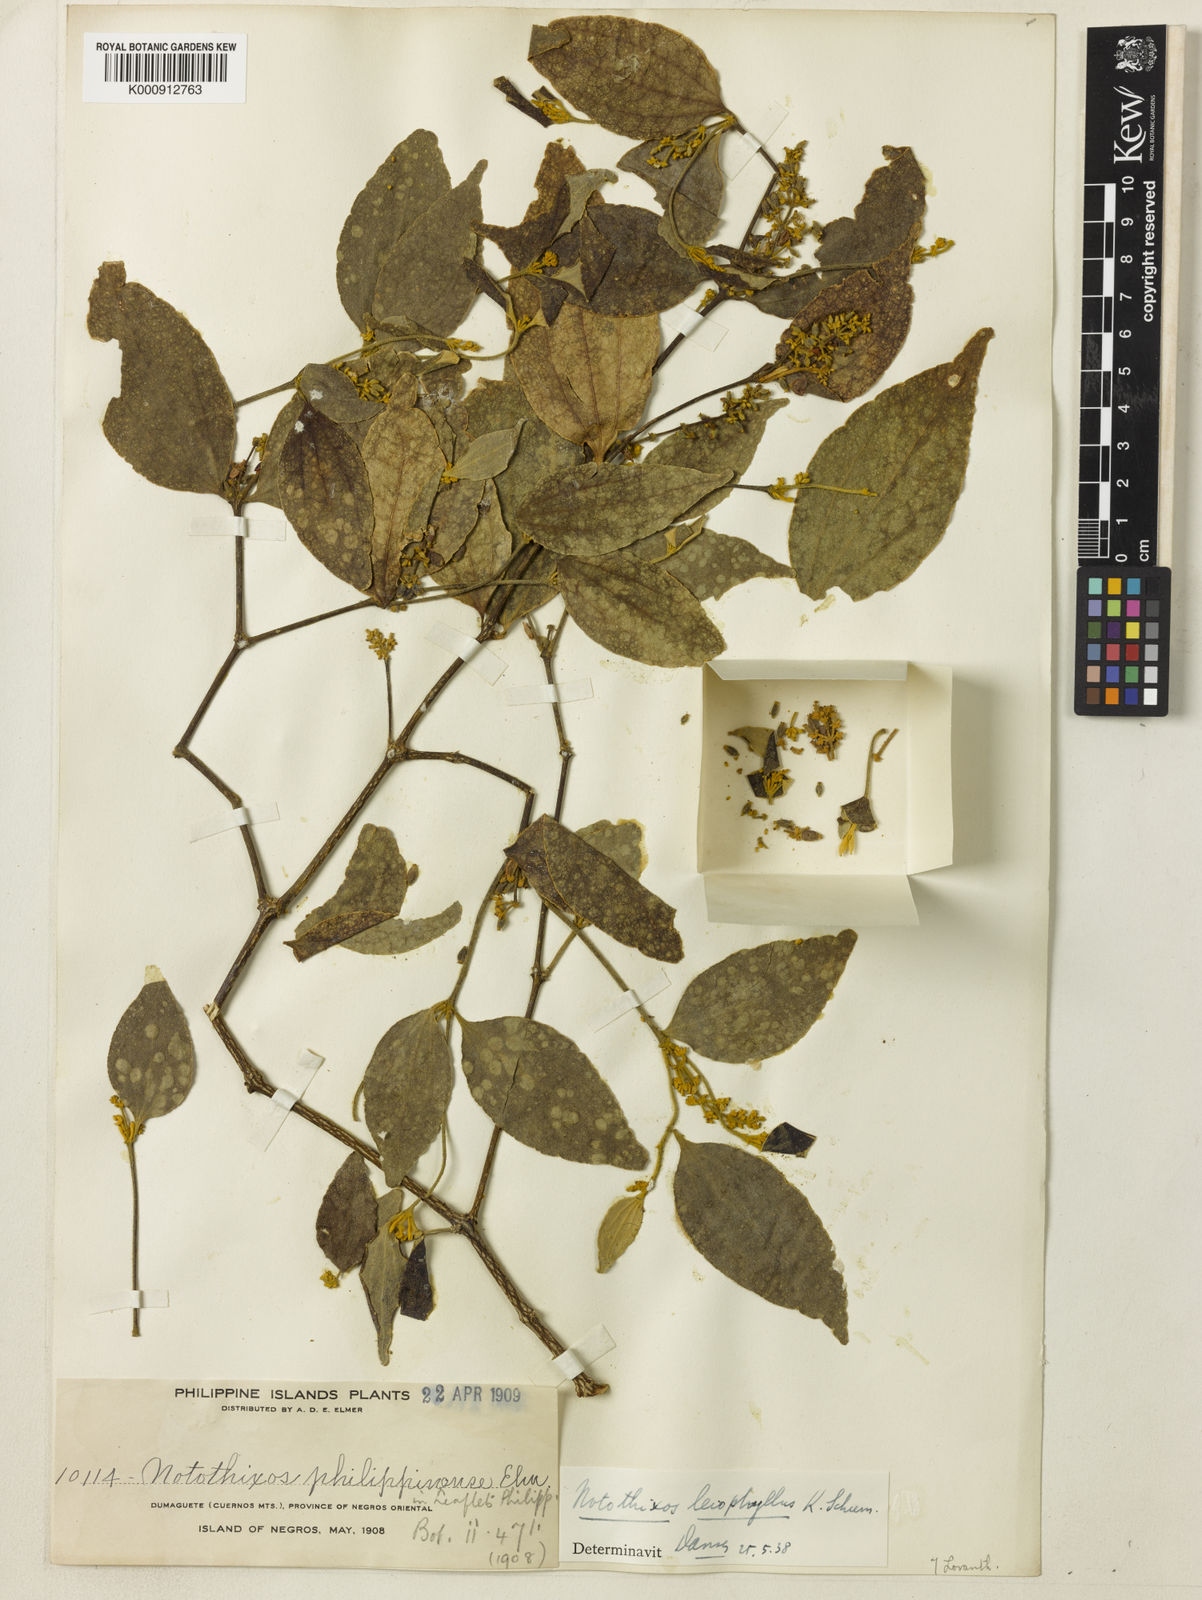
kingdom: Plantae
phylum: Tracheophyta
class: Magnoliopsida
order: Santalales
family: Viscaceae
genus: Notothixos
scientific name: Notothixos leiophyllus
